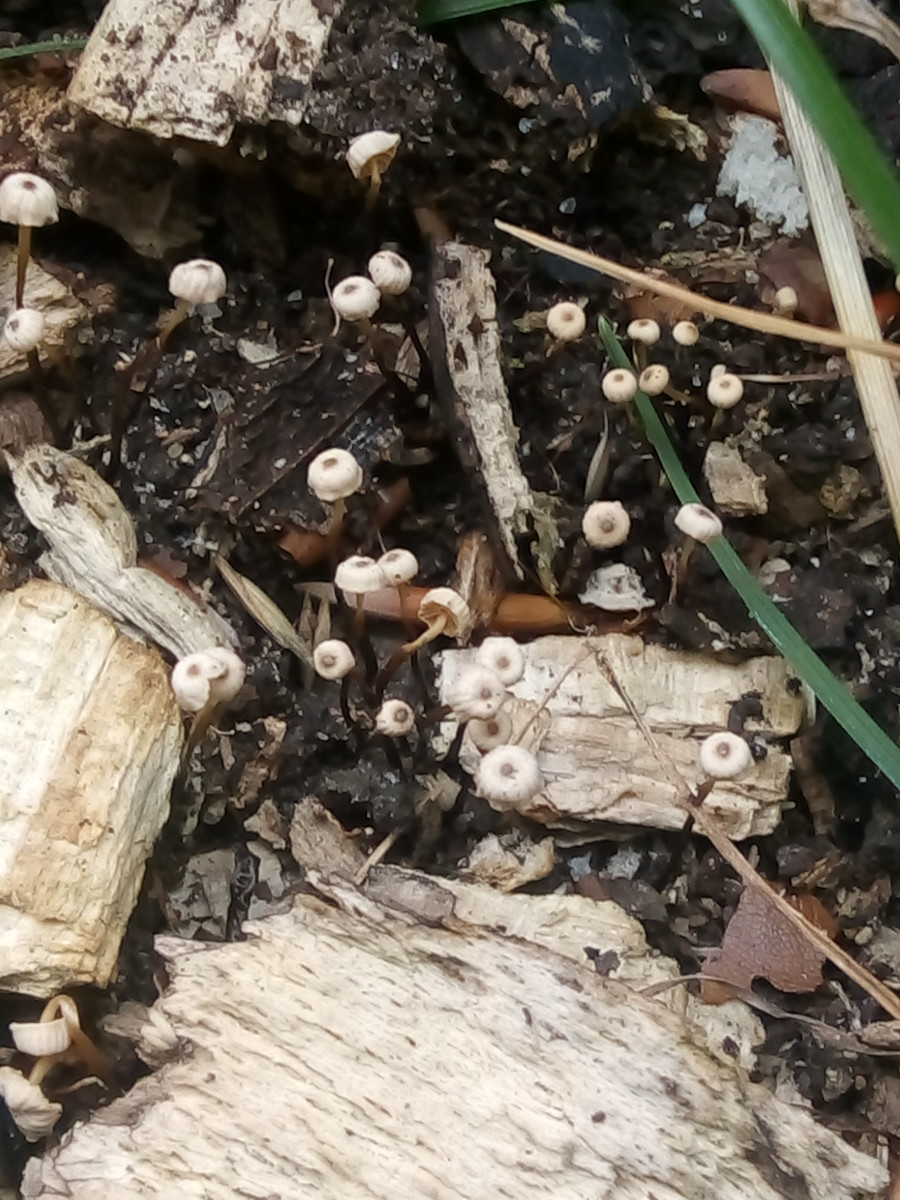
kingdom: Fungi
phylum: Basidiomycota
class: Agaricomycetes
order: Agaricales
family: Marasmiaceae
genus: Marasmius
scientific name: Marasmius rotula
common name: hjul-bruskhat
